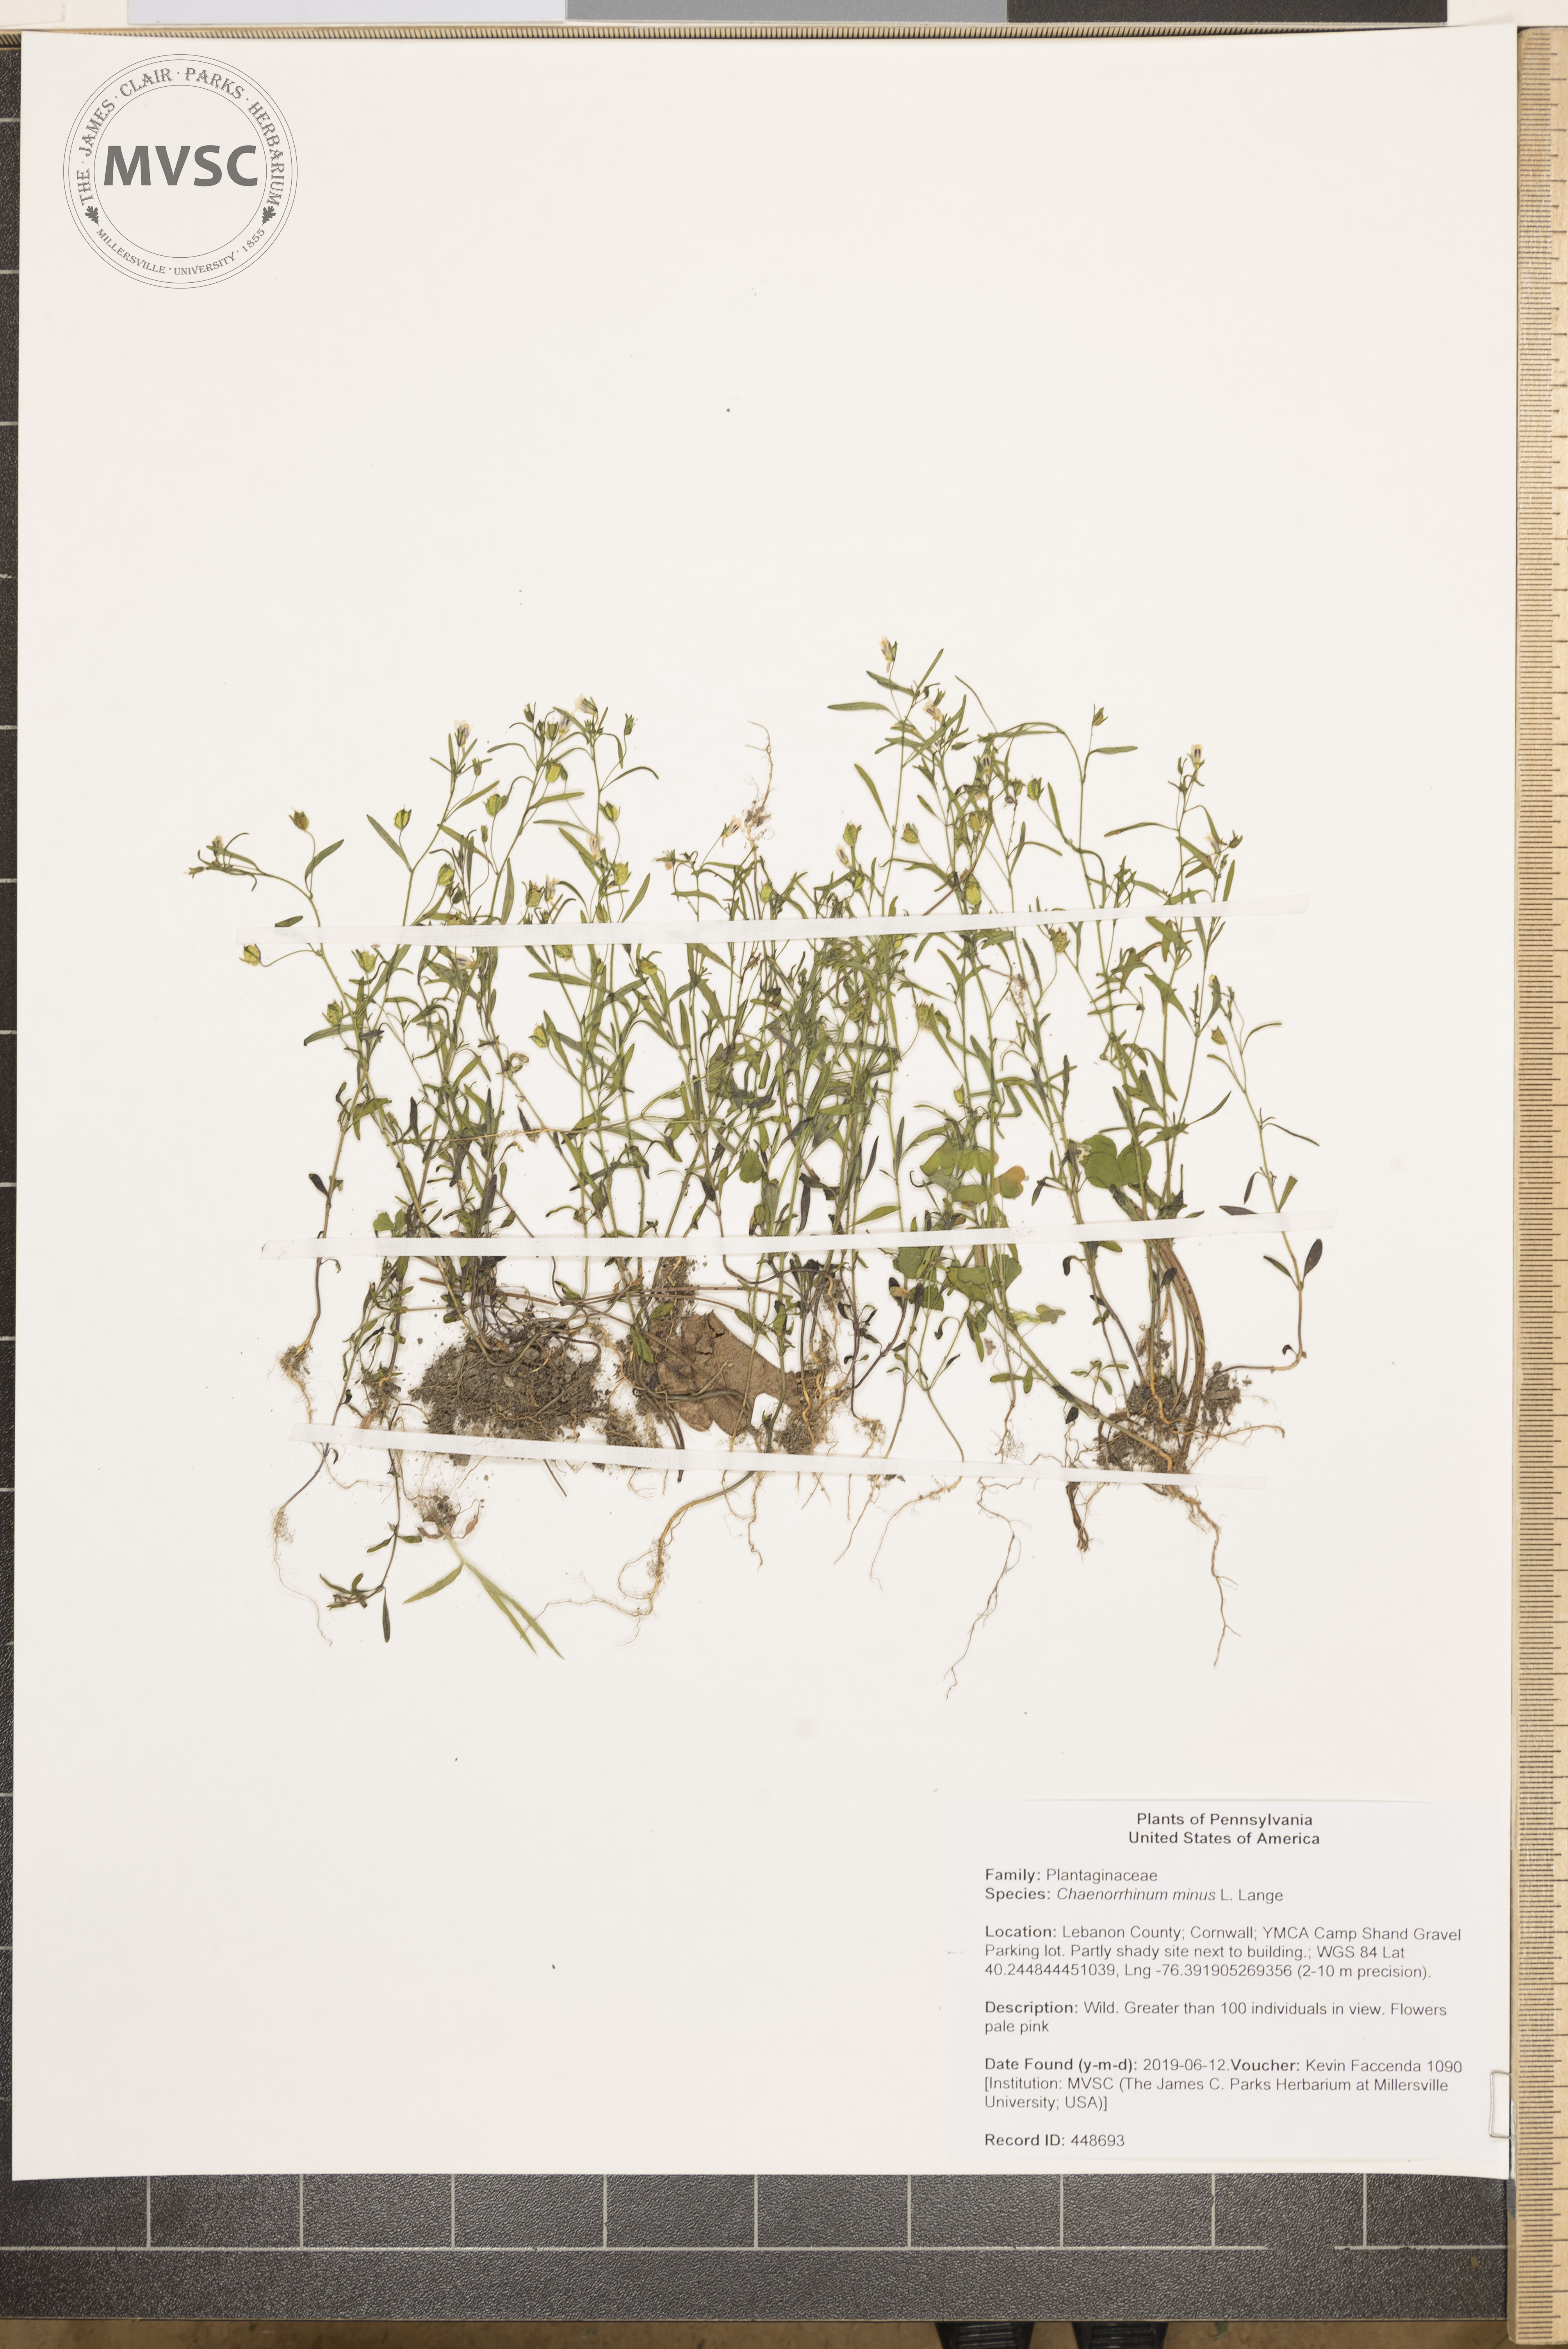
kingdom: Plantae
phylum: Tracheophyta
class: Magnoliopsida
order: Lamiales
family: Plantaginaceae
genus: Chaenorhinum
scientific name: Chaenorhinum minus
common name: Dwarf snapdragon
